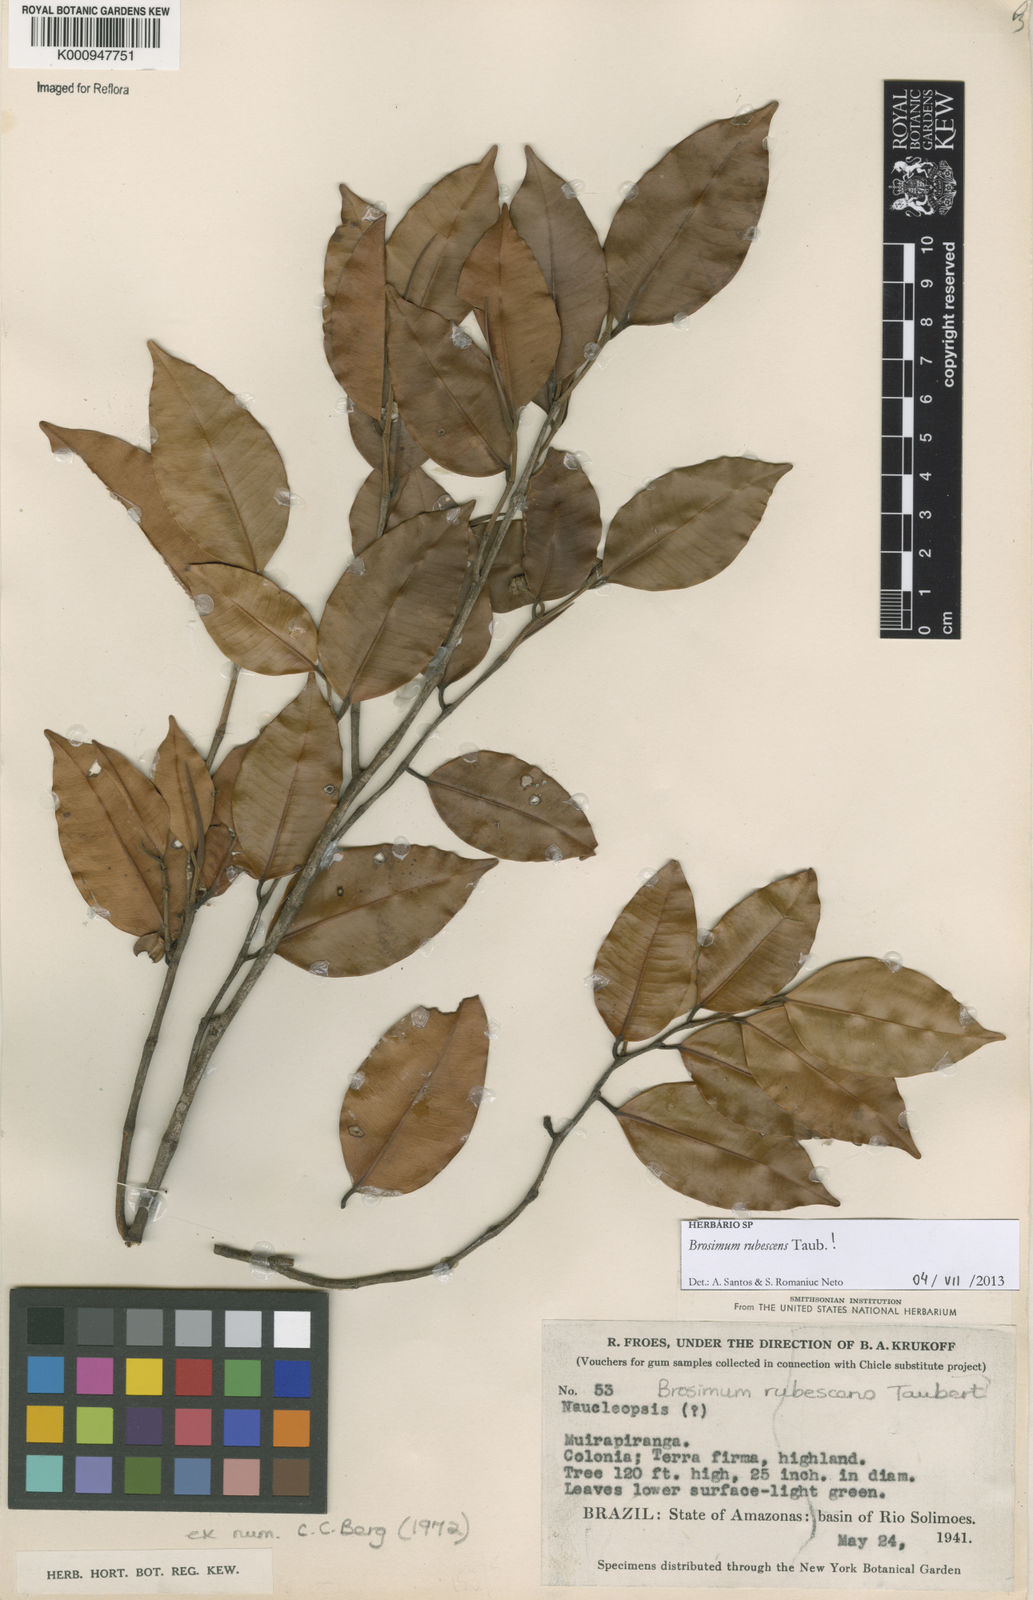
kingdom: Plantae
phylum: Tracheophyta
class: Magnoliopsida
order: Rosales
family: Moraceae
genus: Brosimum
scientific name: Brosimum rubescens
